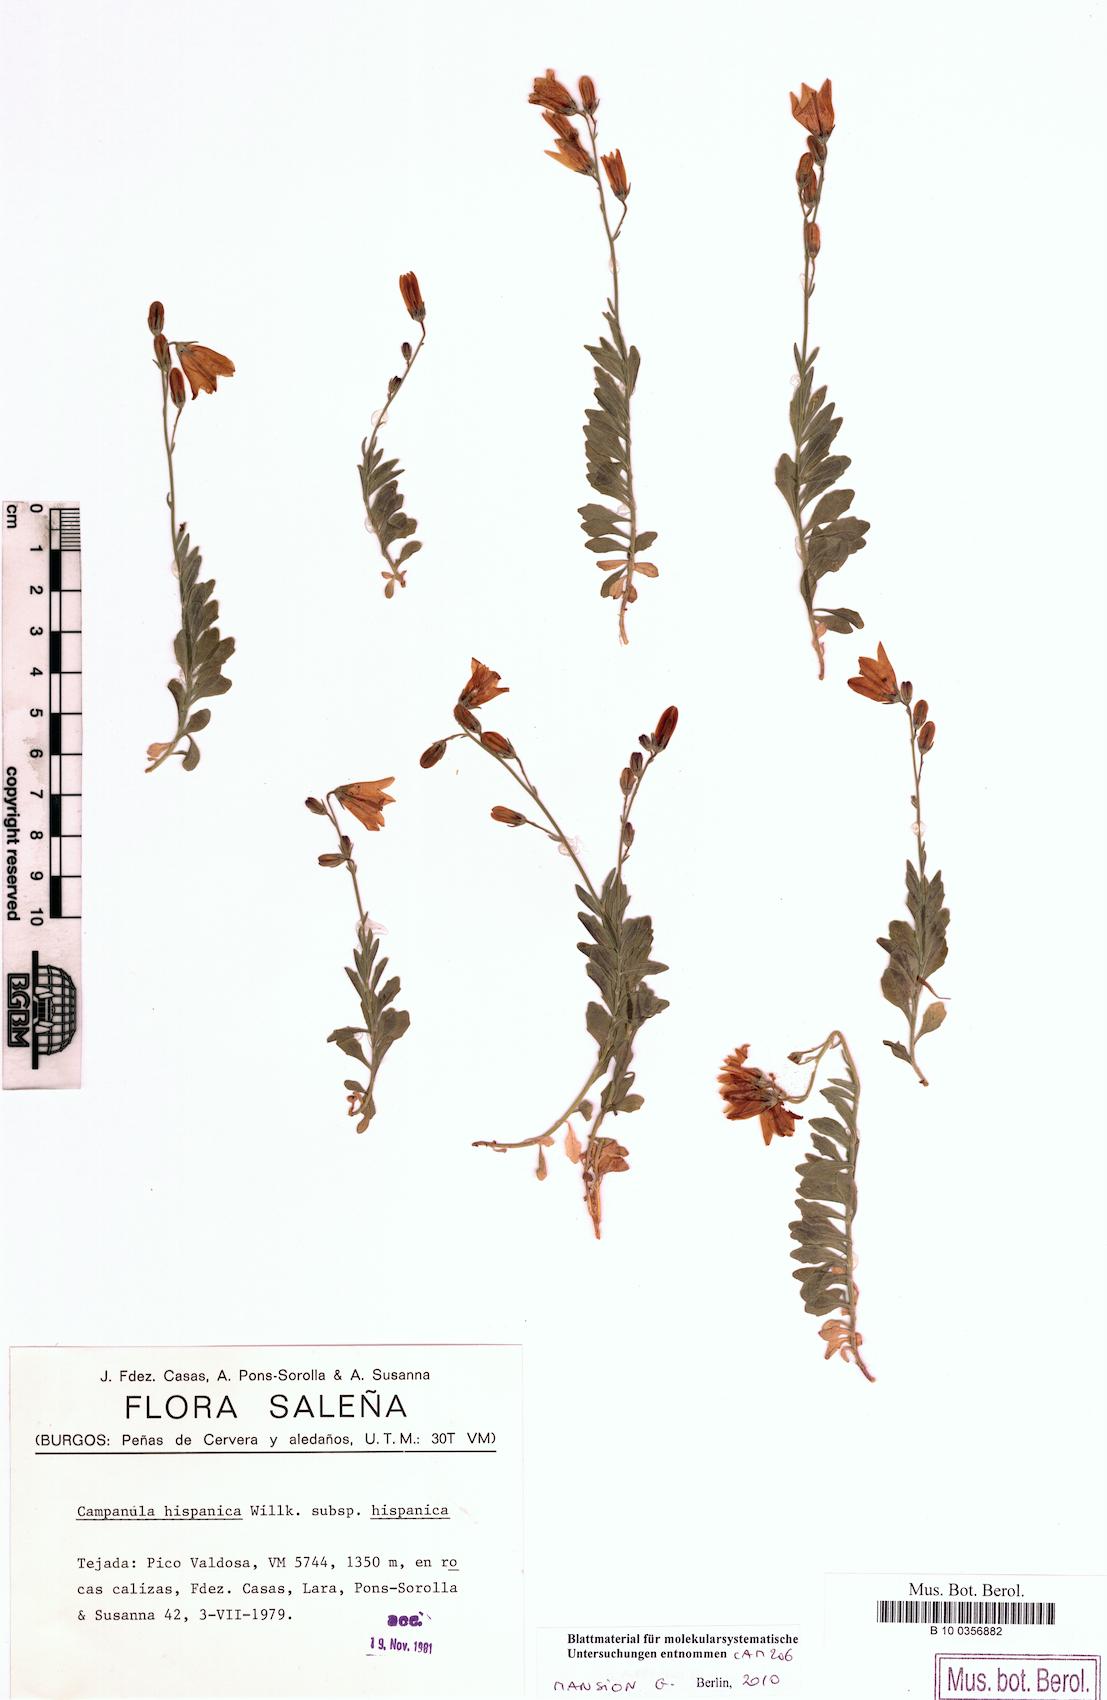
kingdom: Plantae
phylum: Tracheophyta
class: Magnoliopsida
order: Asterales
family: Campanulaceae
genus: Campanula
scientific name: Campanula hispanica
